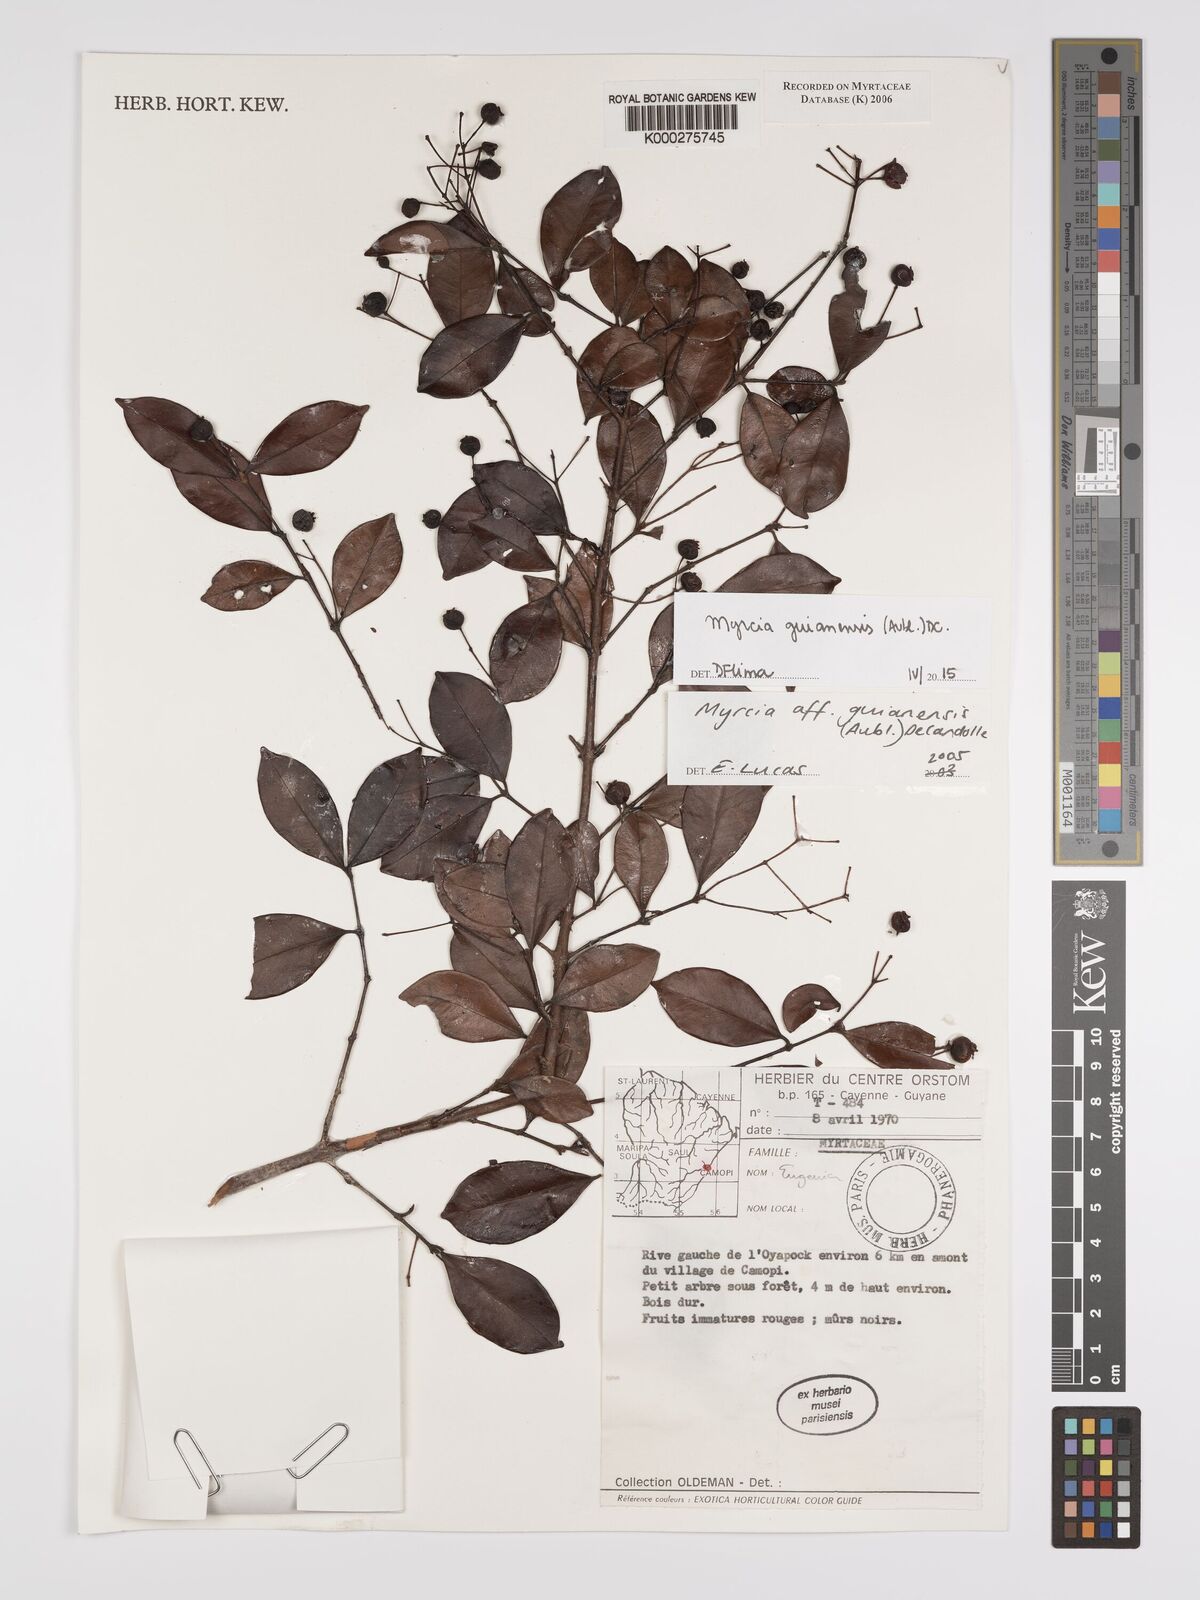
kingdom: Plantae
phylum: Tracheophyta
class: Magnoliopsida
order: Myrtales
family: Myrtaceae
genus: Myrcia
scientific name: Myrcia guianensis
